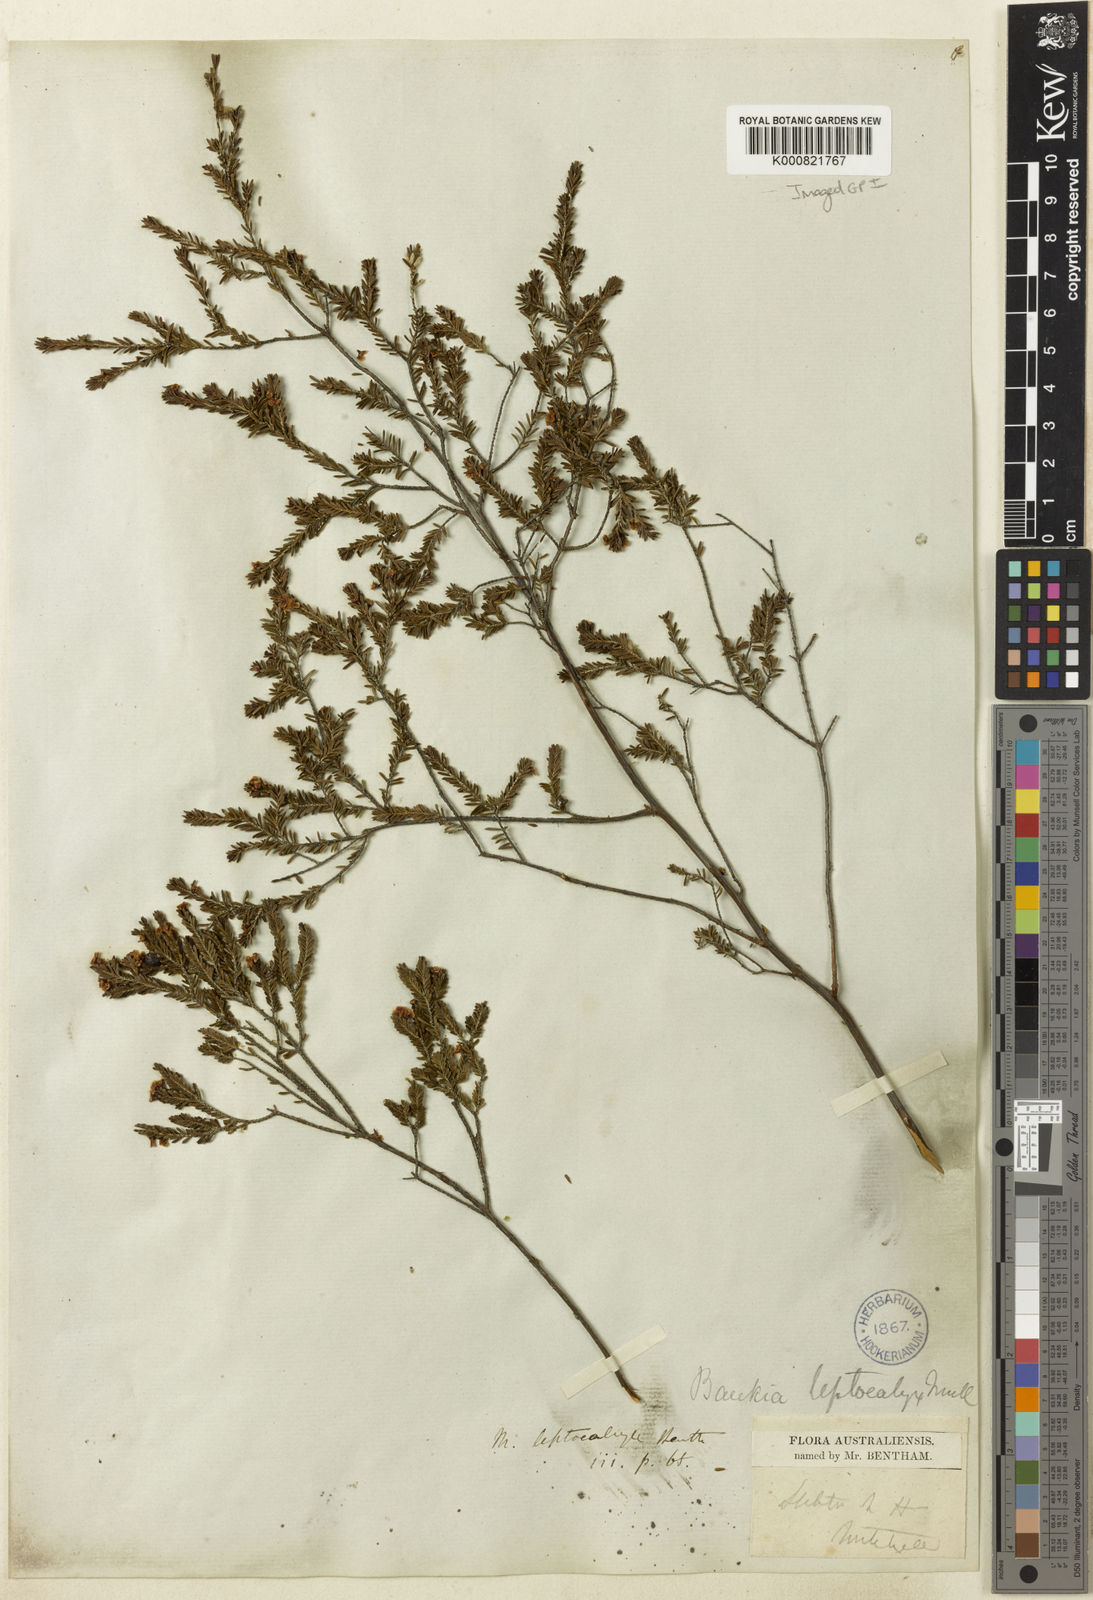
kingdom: Plantae
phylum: Tracheophyta
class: Magnoliopsida
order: Myrtales
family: Myrtaceae
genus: Micromyrtus
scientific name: Micromyrtus leptocalyx
